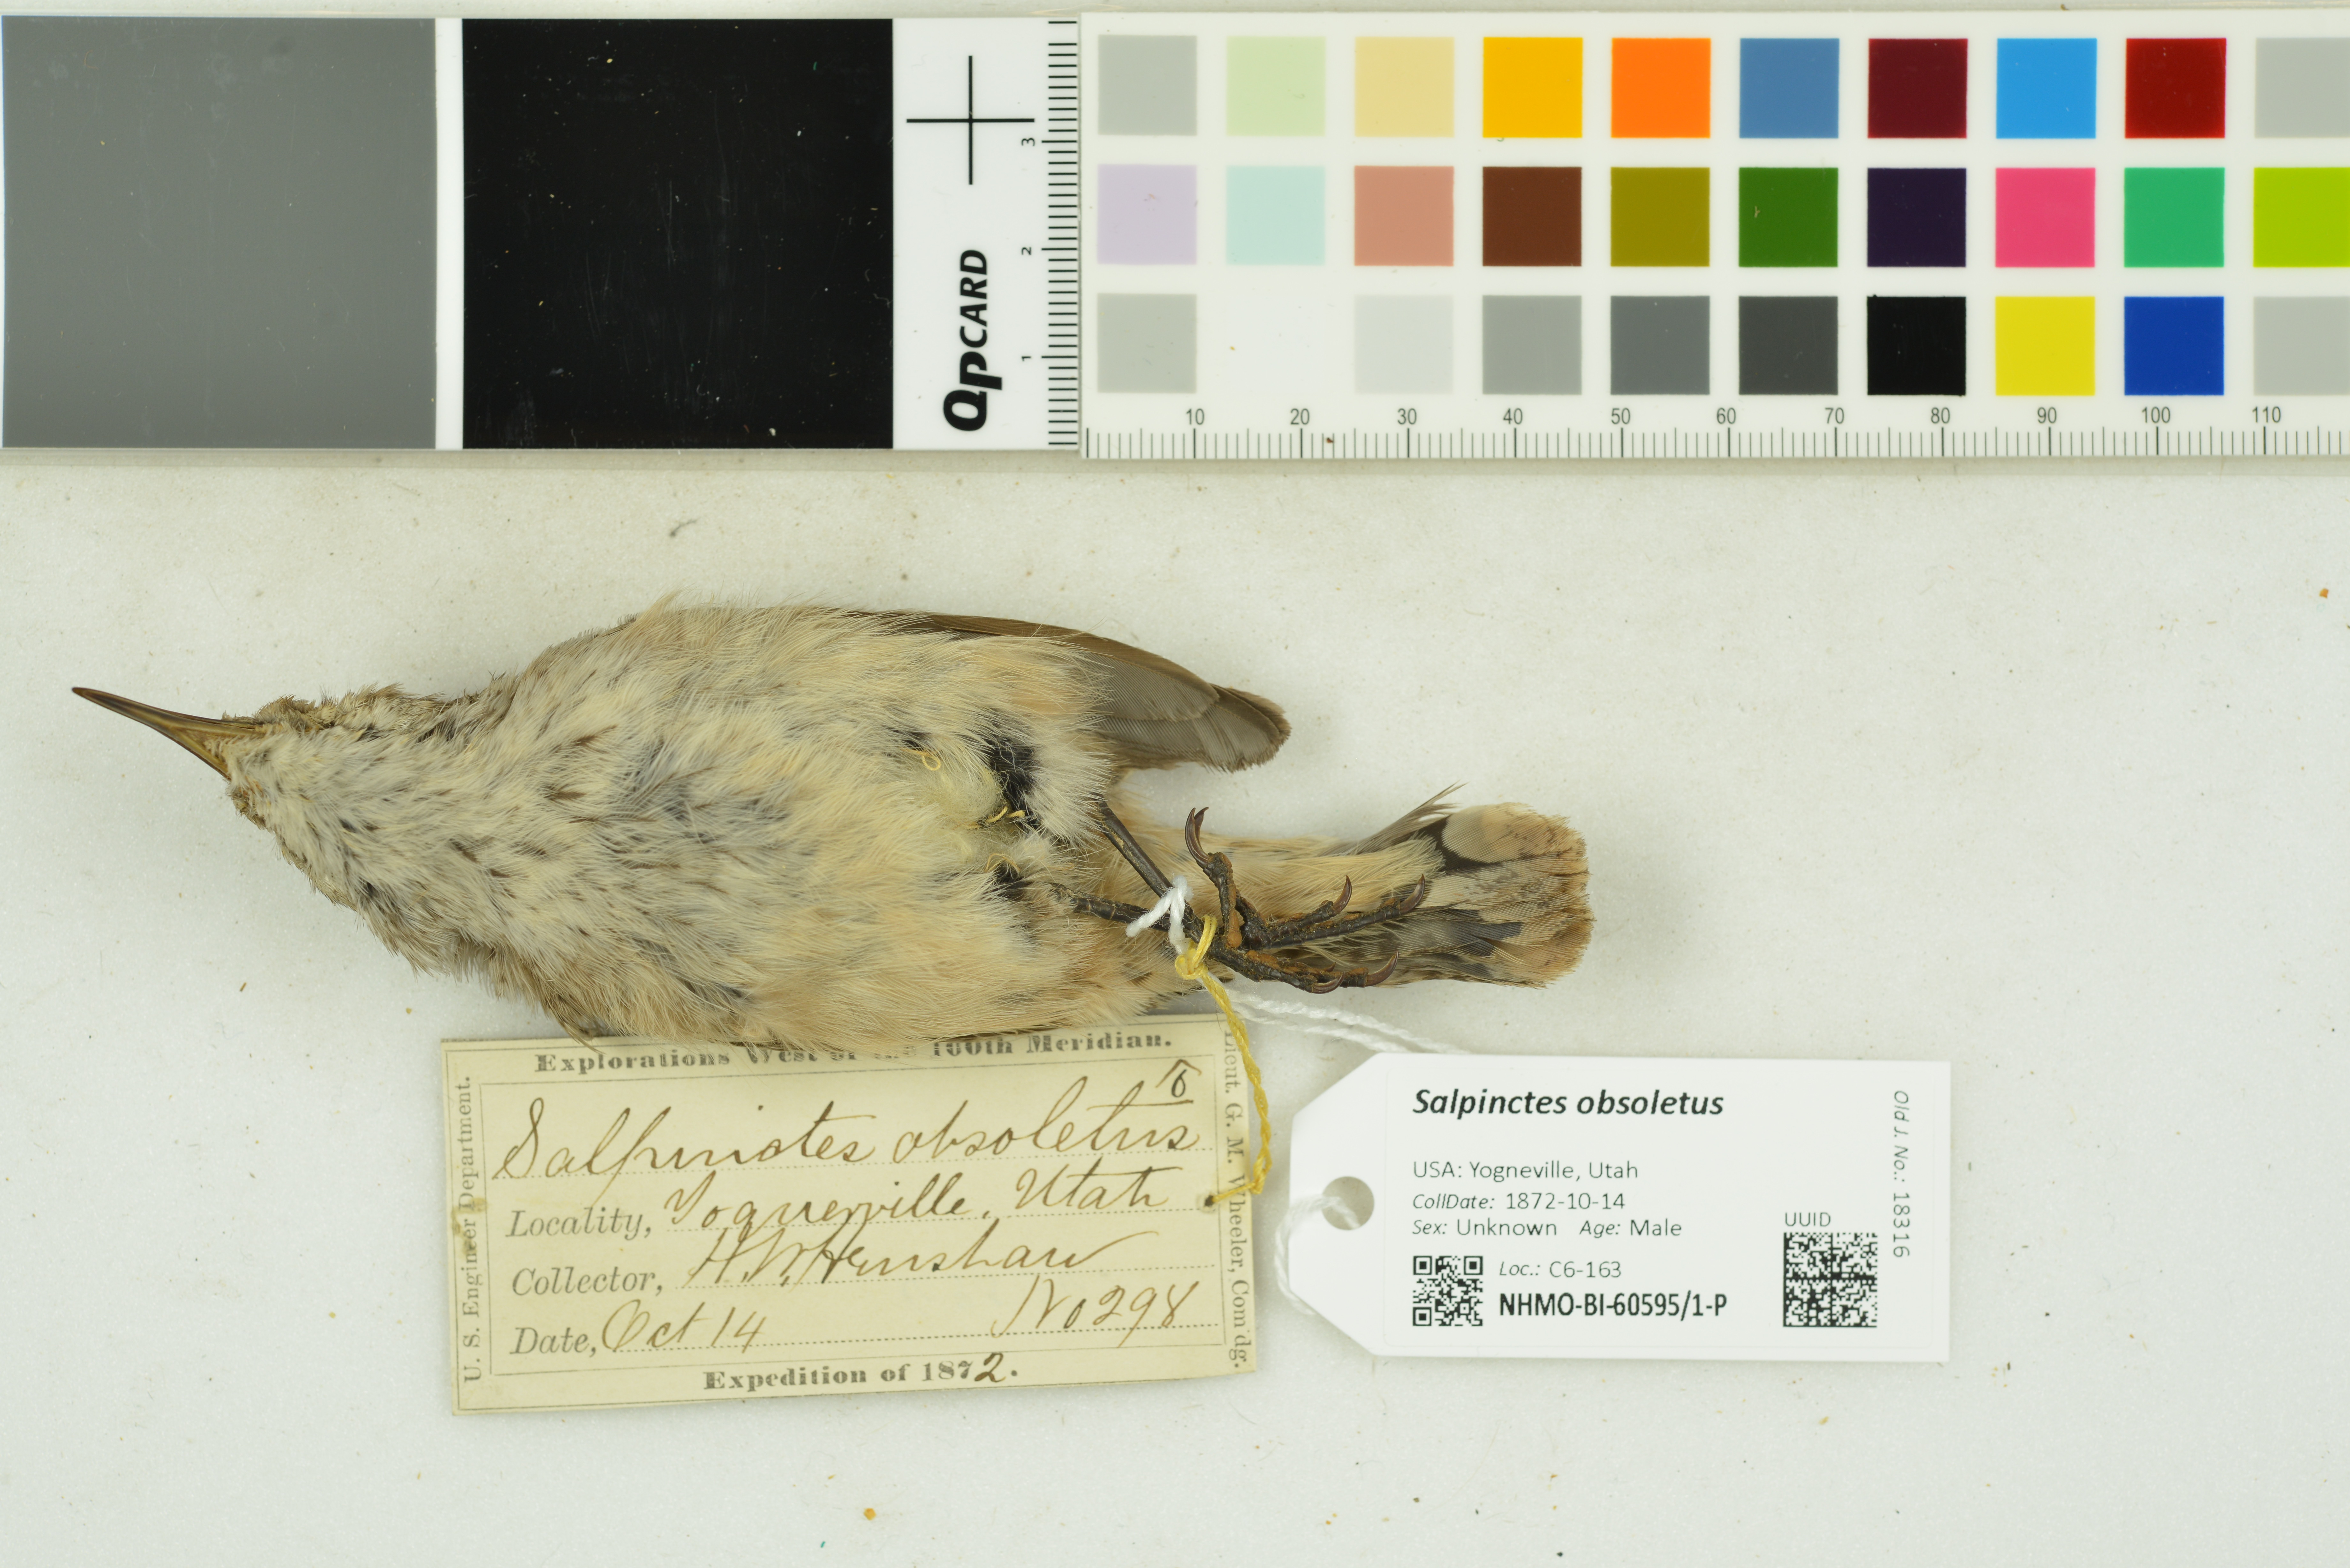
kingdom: Animalia
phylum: Chordata
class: Aves
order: Passeriformes
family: Troglodytidae
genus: Salpinctes
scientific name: Salpinctes obsoletus
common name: Rock wren
